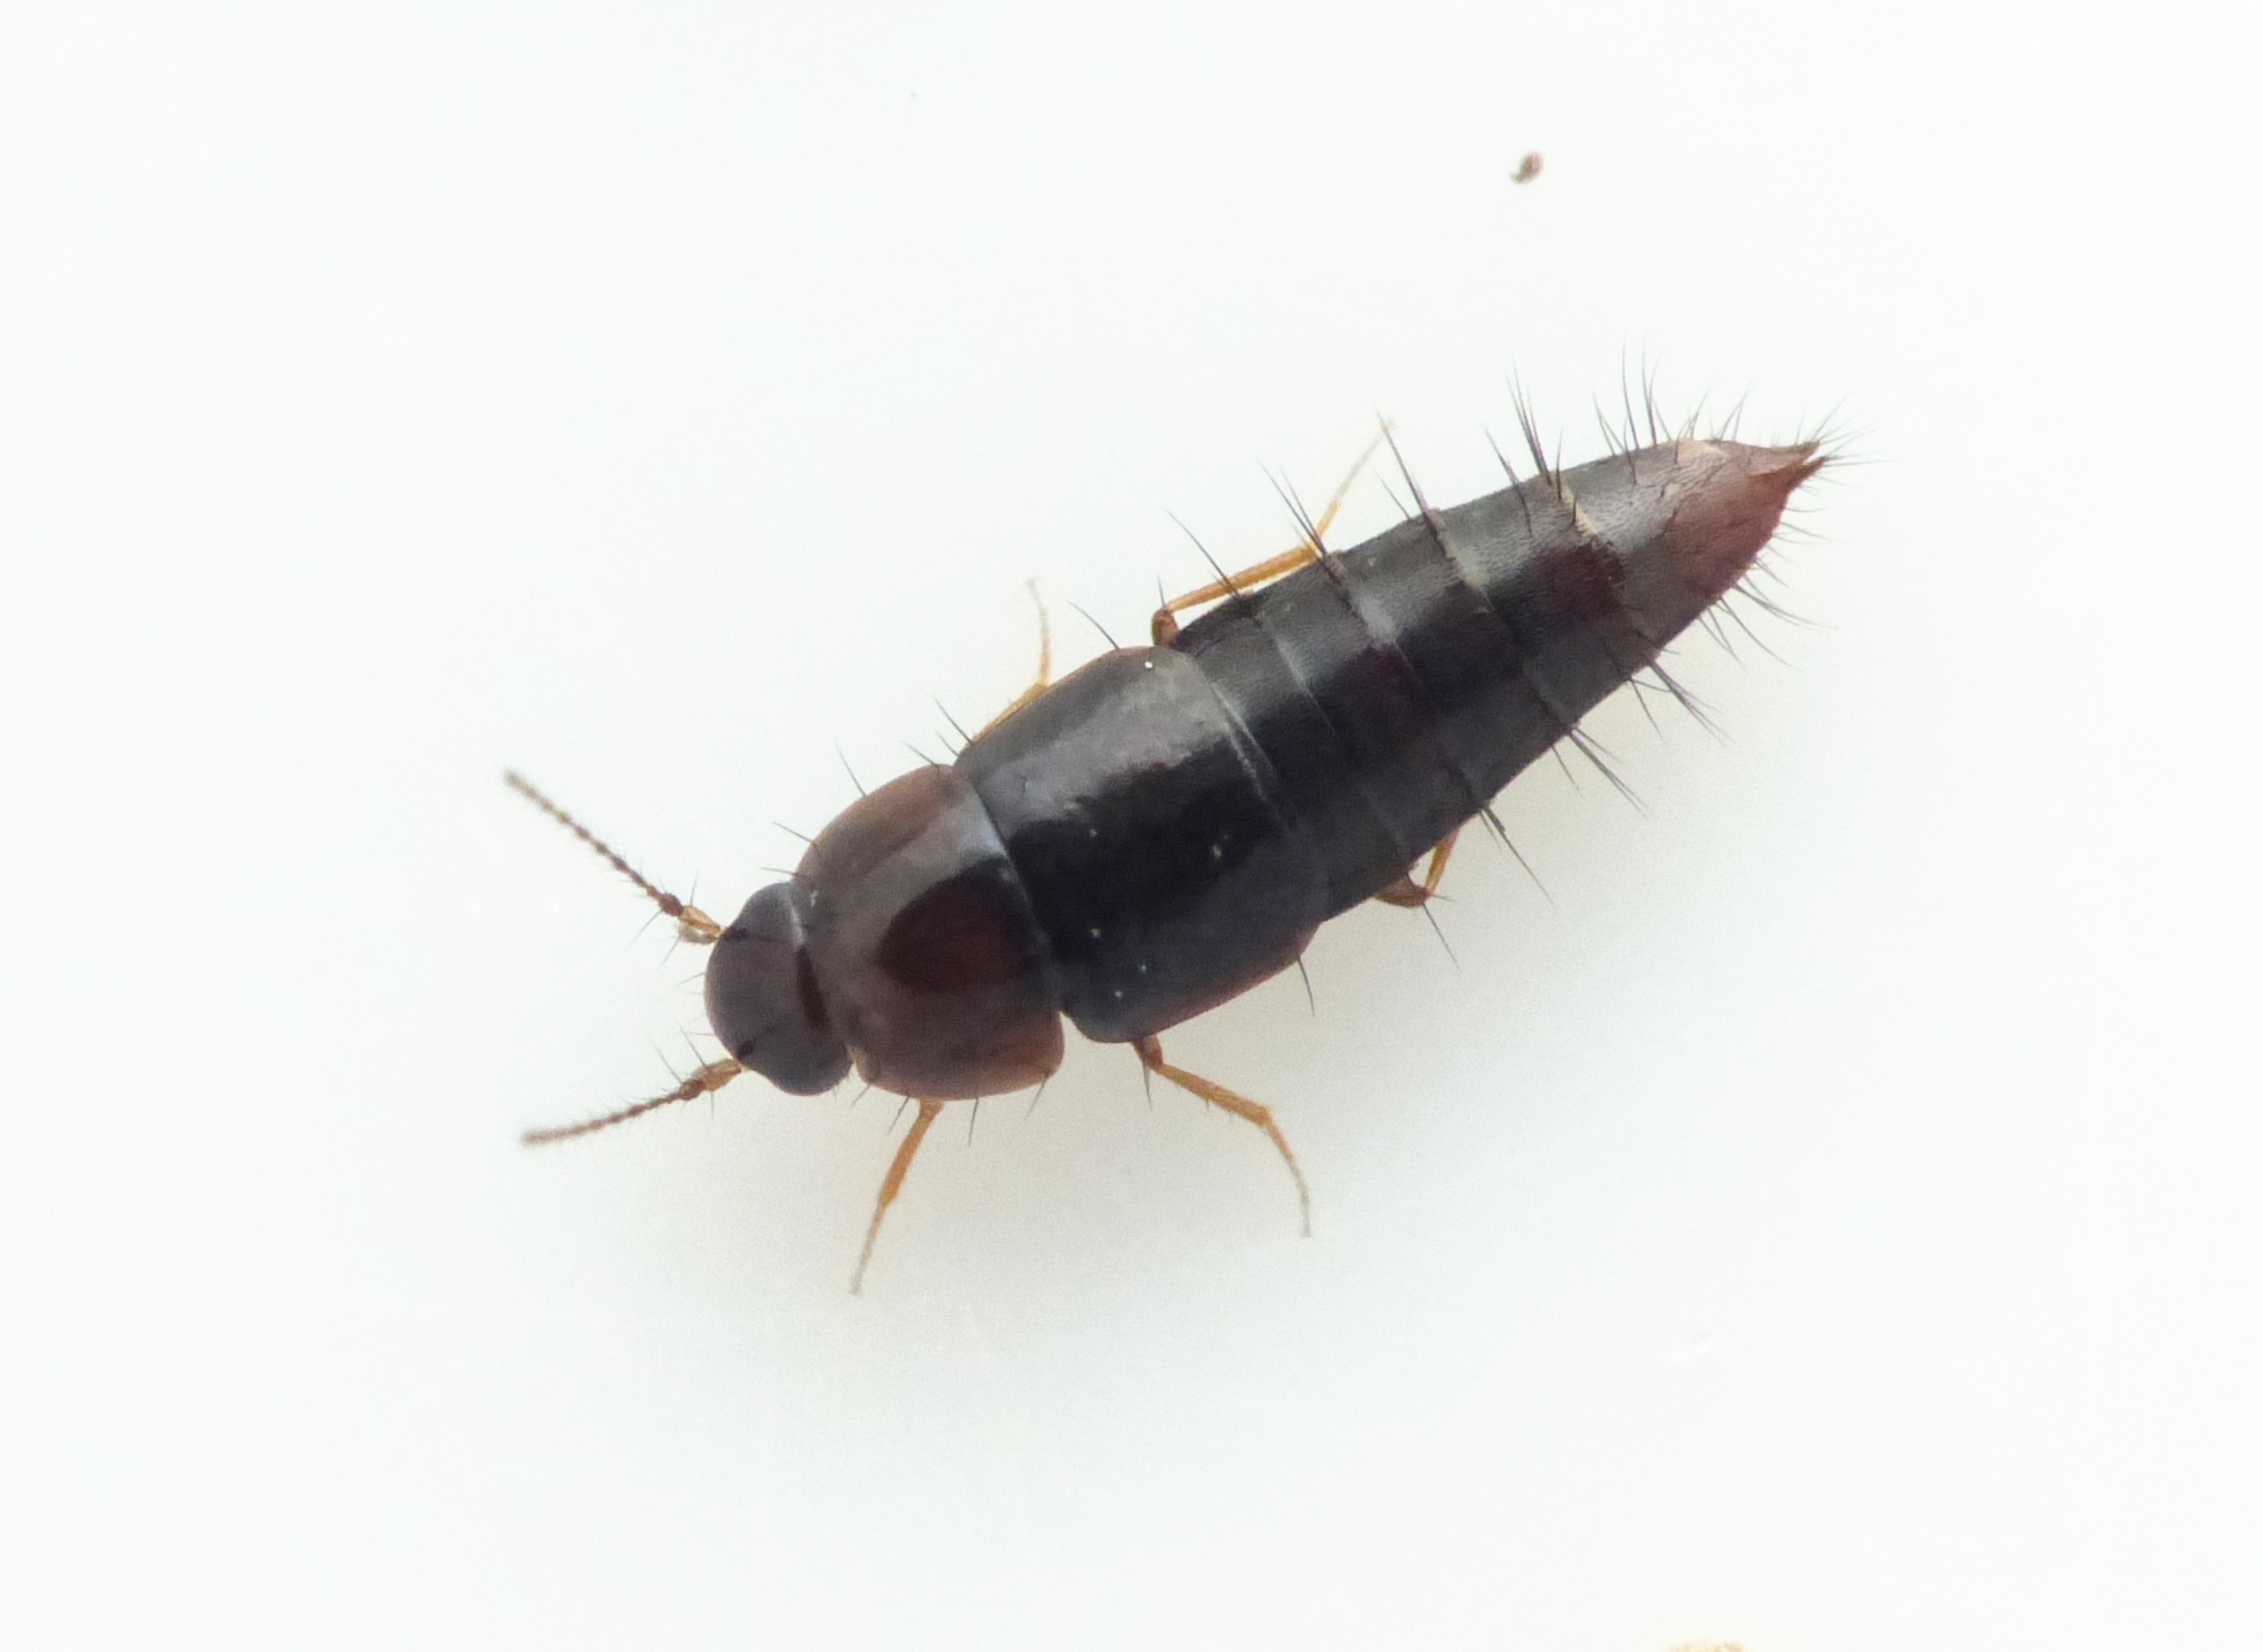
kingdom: Animalia
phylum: Arthropoda
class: Insecta
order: Coleoptera
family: Staphylinidae
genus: Habrocerus
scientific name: Habrocerus capillaricornis
